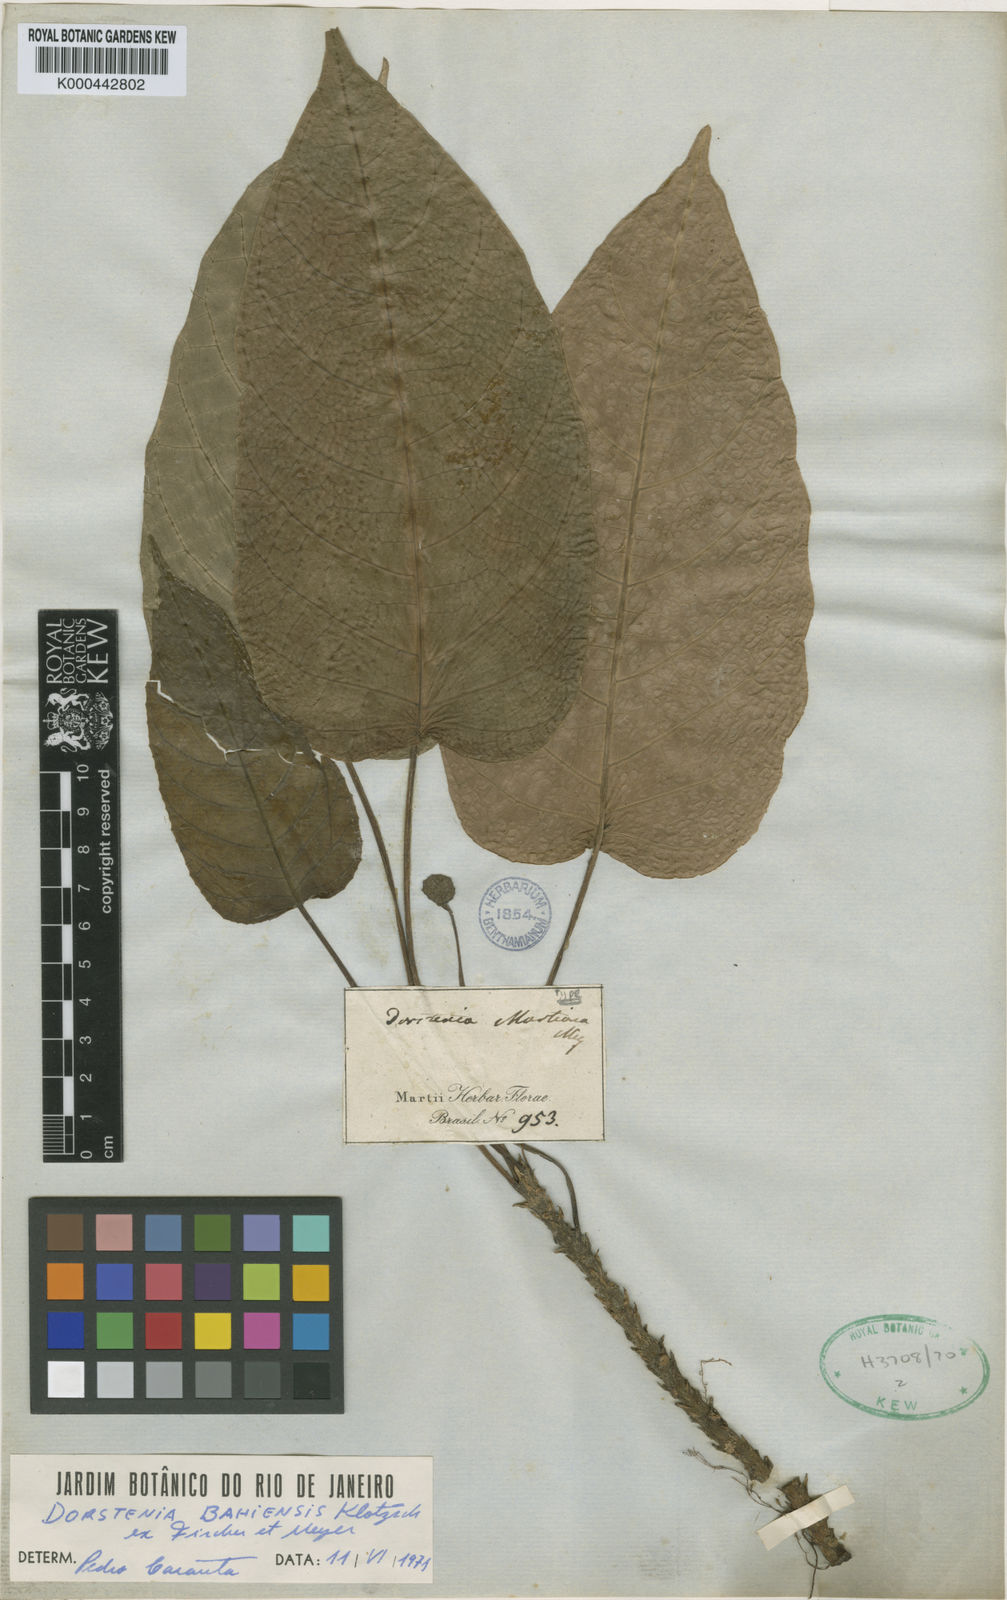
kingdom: Plantae
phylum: Tracheophyta
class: Magnoliopsida
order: Rosales
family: Moraceae
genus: Dorstenia
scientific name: Dorstenia bahiensis
